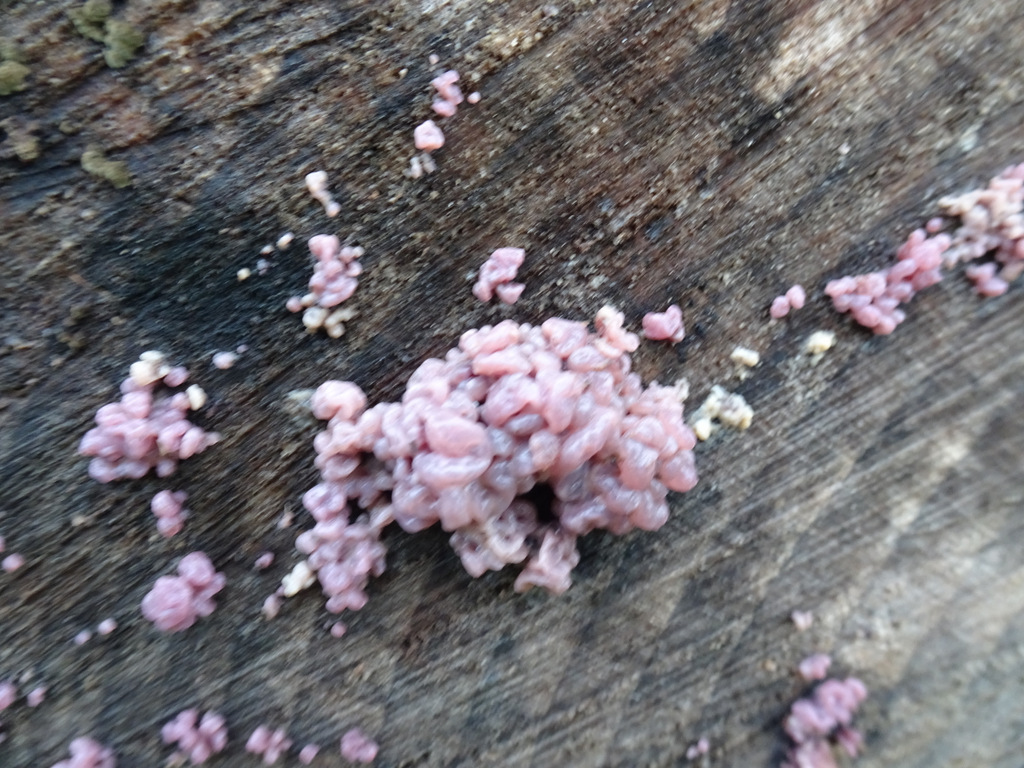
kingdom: Fungi
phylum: Ascomycota
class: Leotiomycetes
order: Helotiales
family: Gelatinodiscaceae
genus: Ascocoryne
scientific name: Ascocoryne sarcoides
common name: rødlilla sejskive
